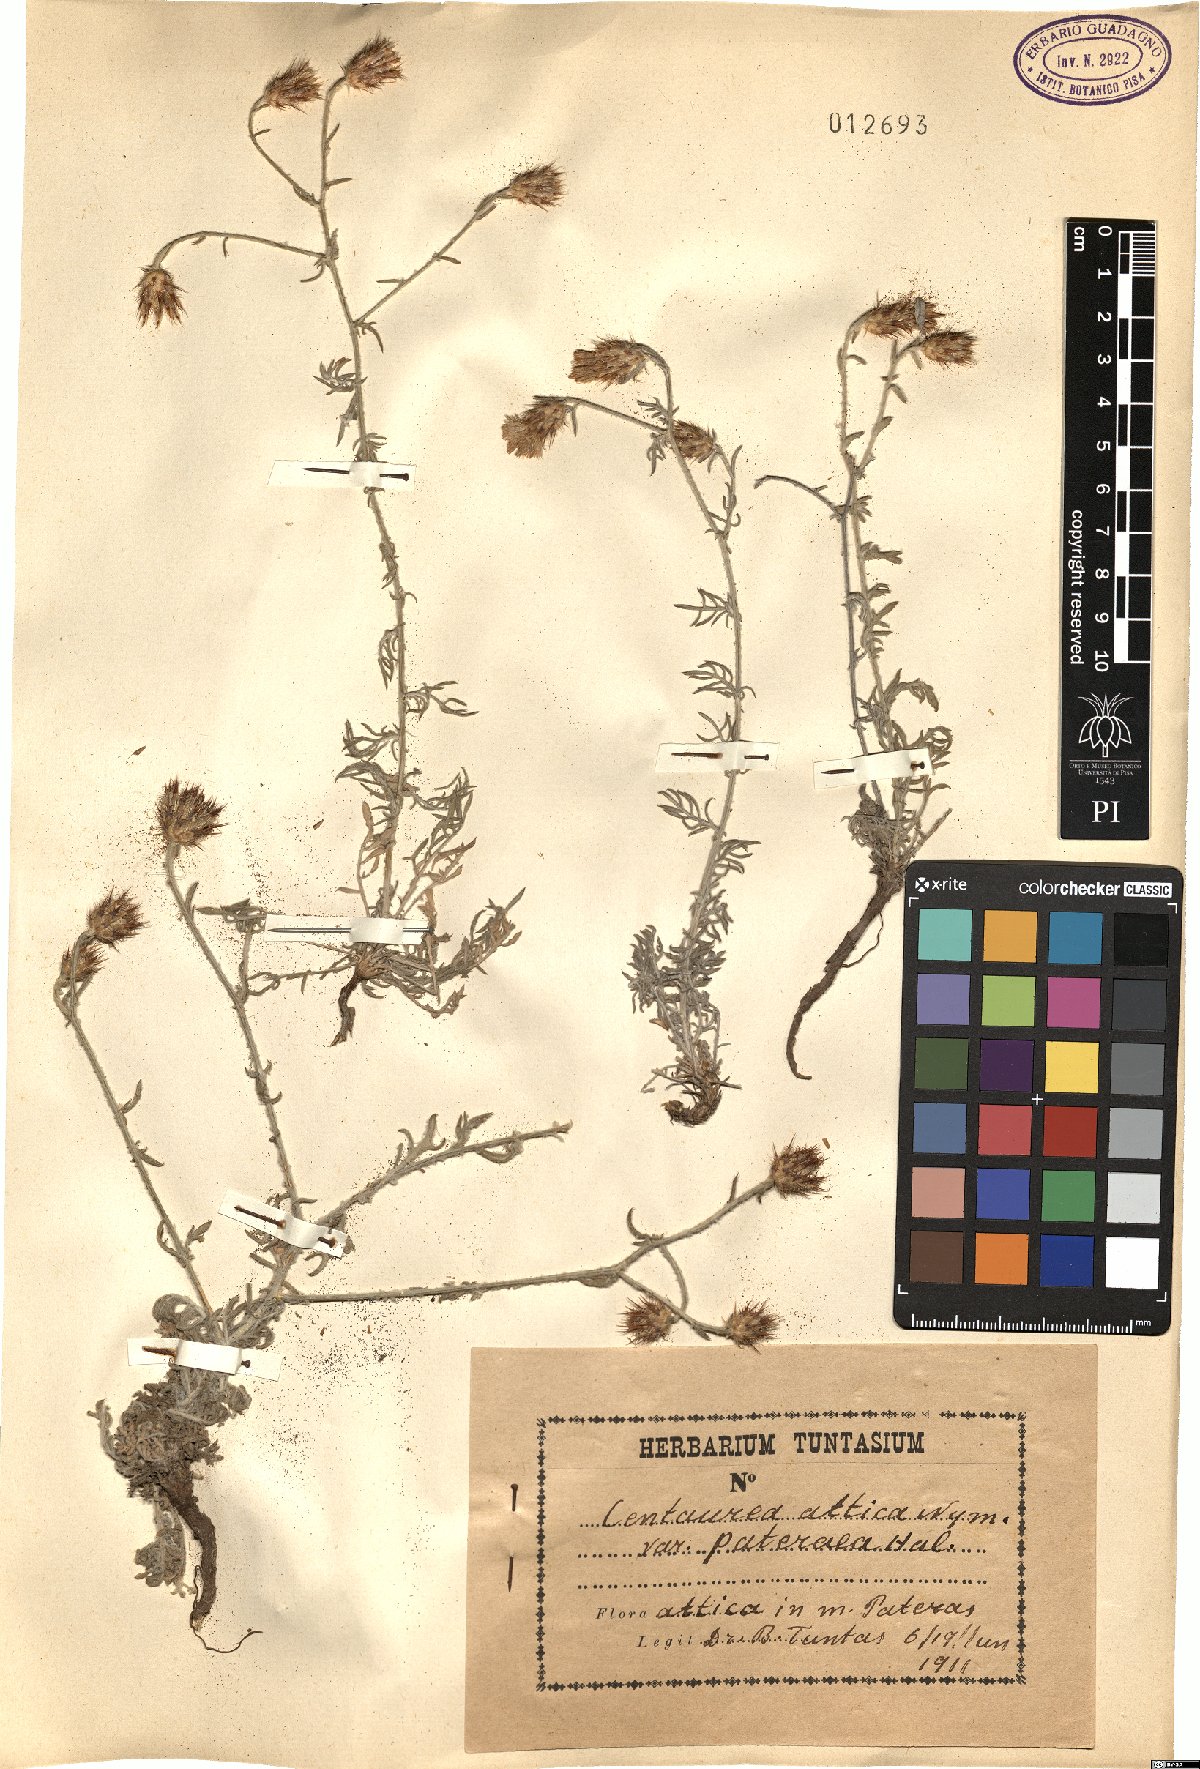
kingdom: Plantae
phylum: Tracheophyta
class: Magnoliopsida
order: Asterales
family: Asteraceae
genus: Centaurea
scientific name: Centaurea subsericans
